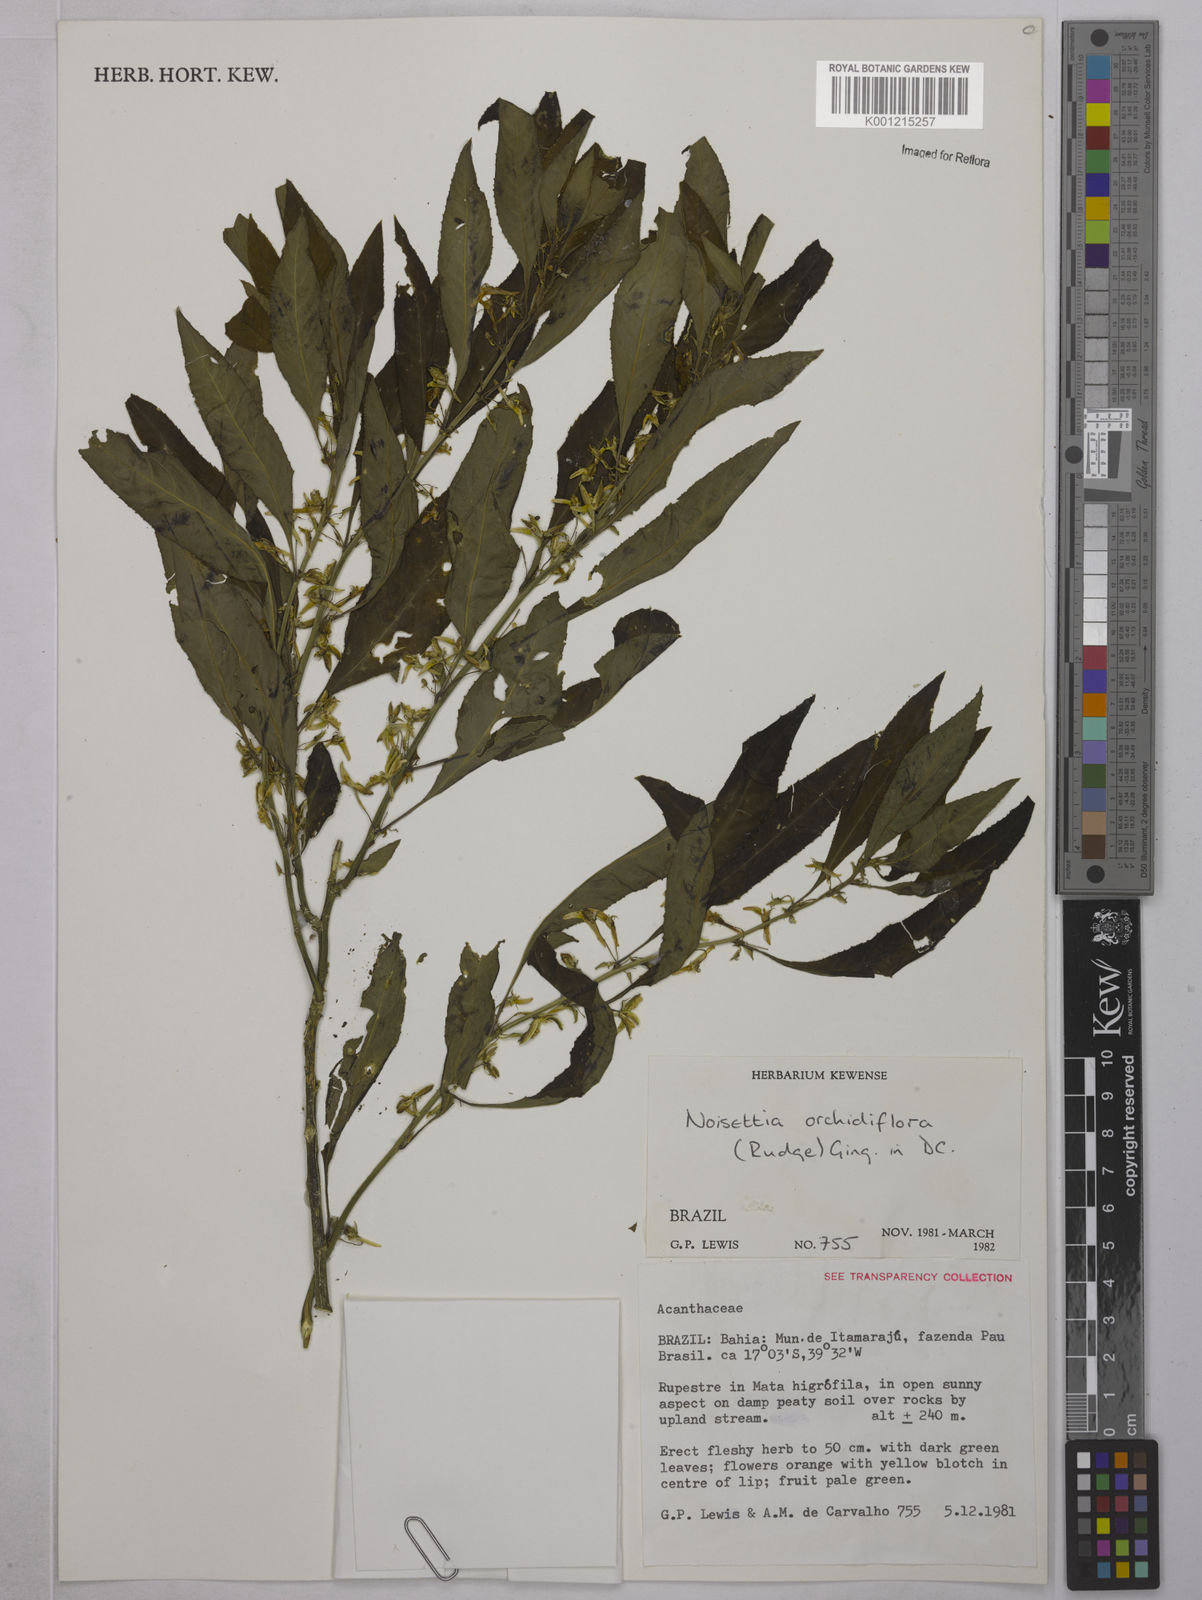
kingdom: Plantae
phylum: Tracheophyta
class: Magnoliopsida
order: Malpighiales
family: Violaceae
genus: Noisettia
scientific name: Noisettia orchidiflora
